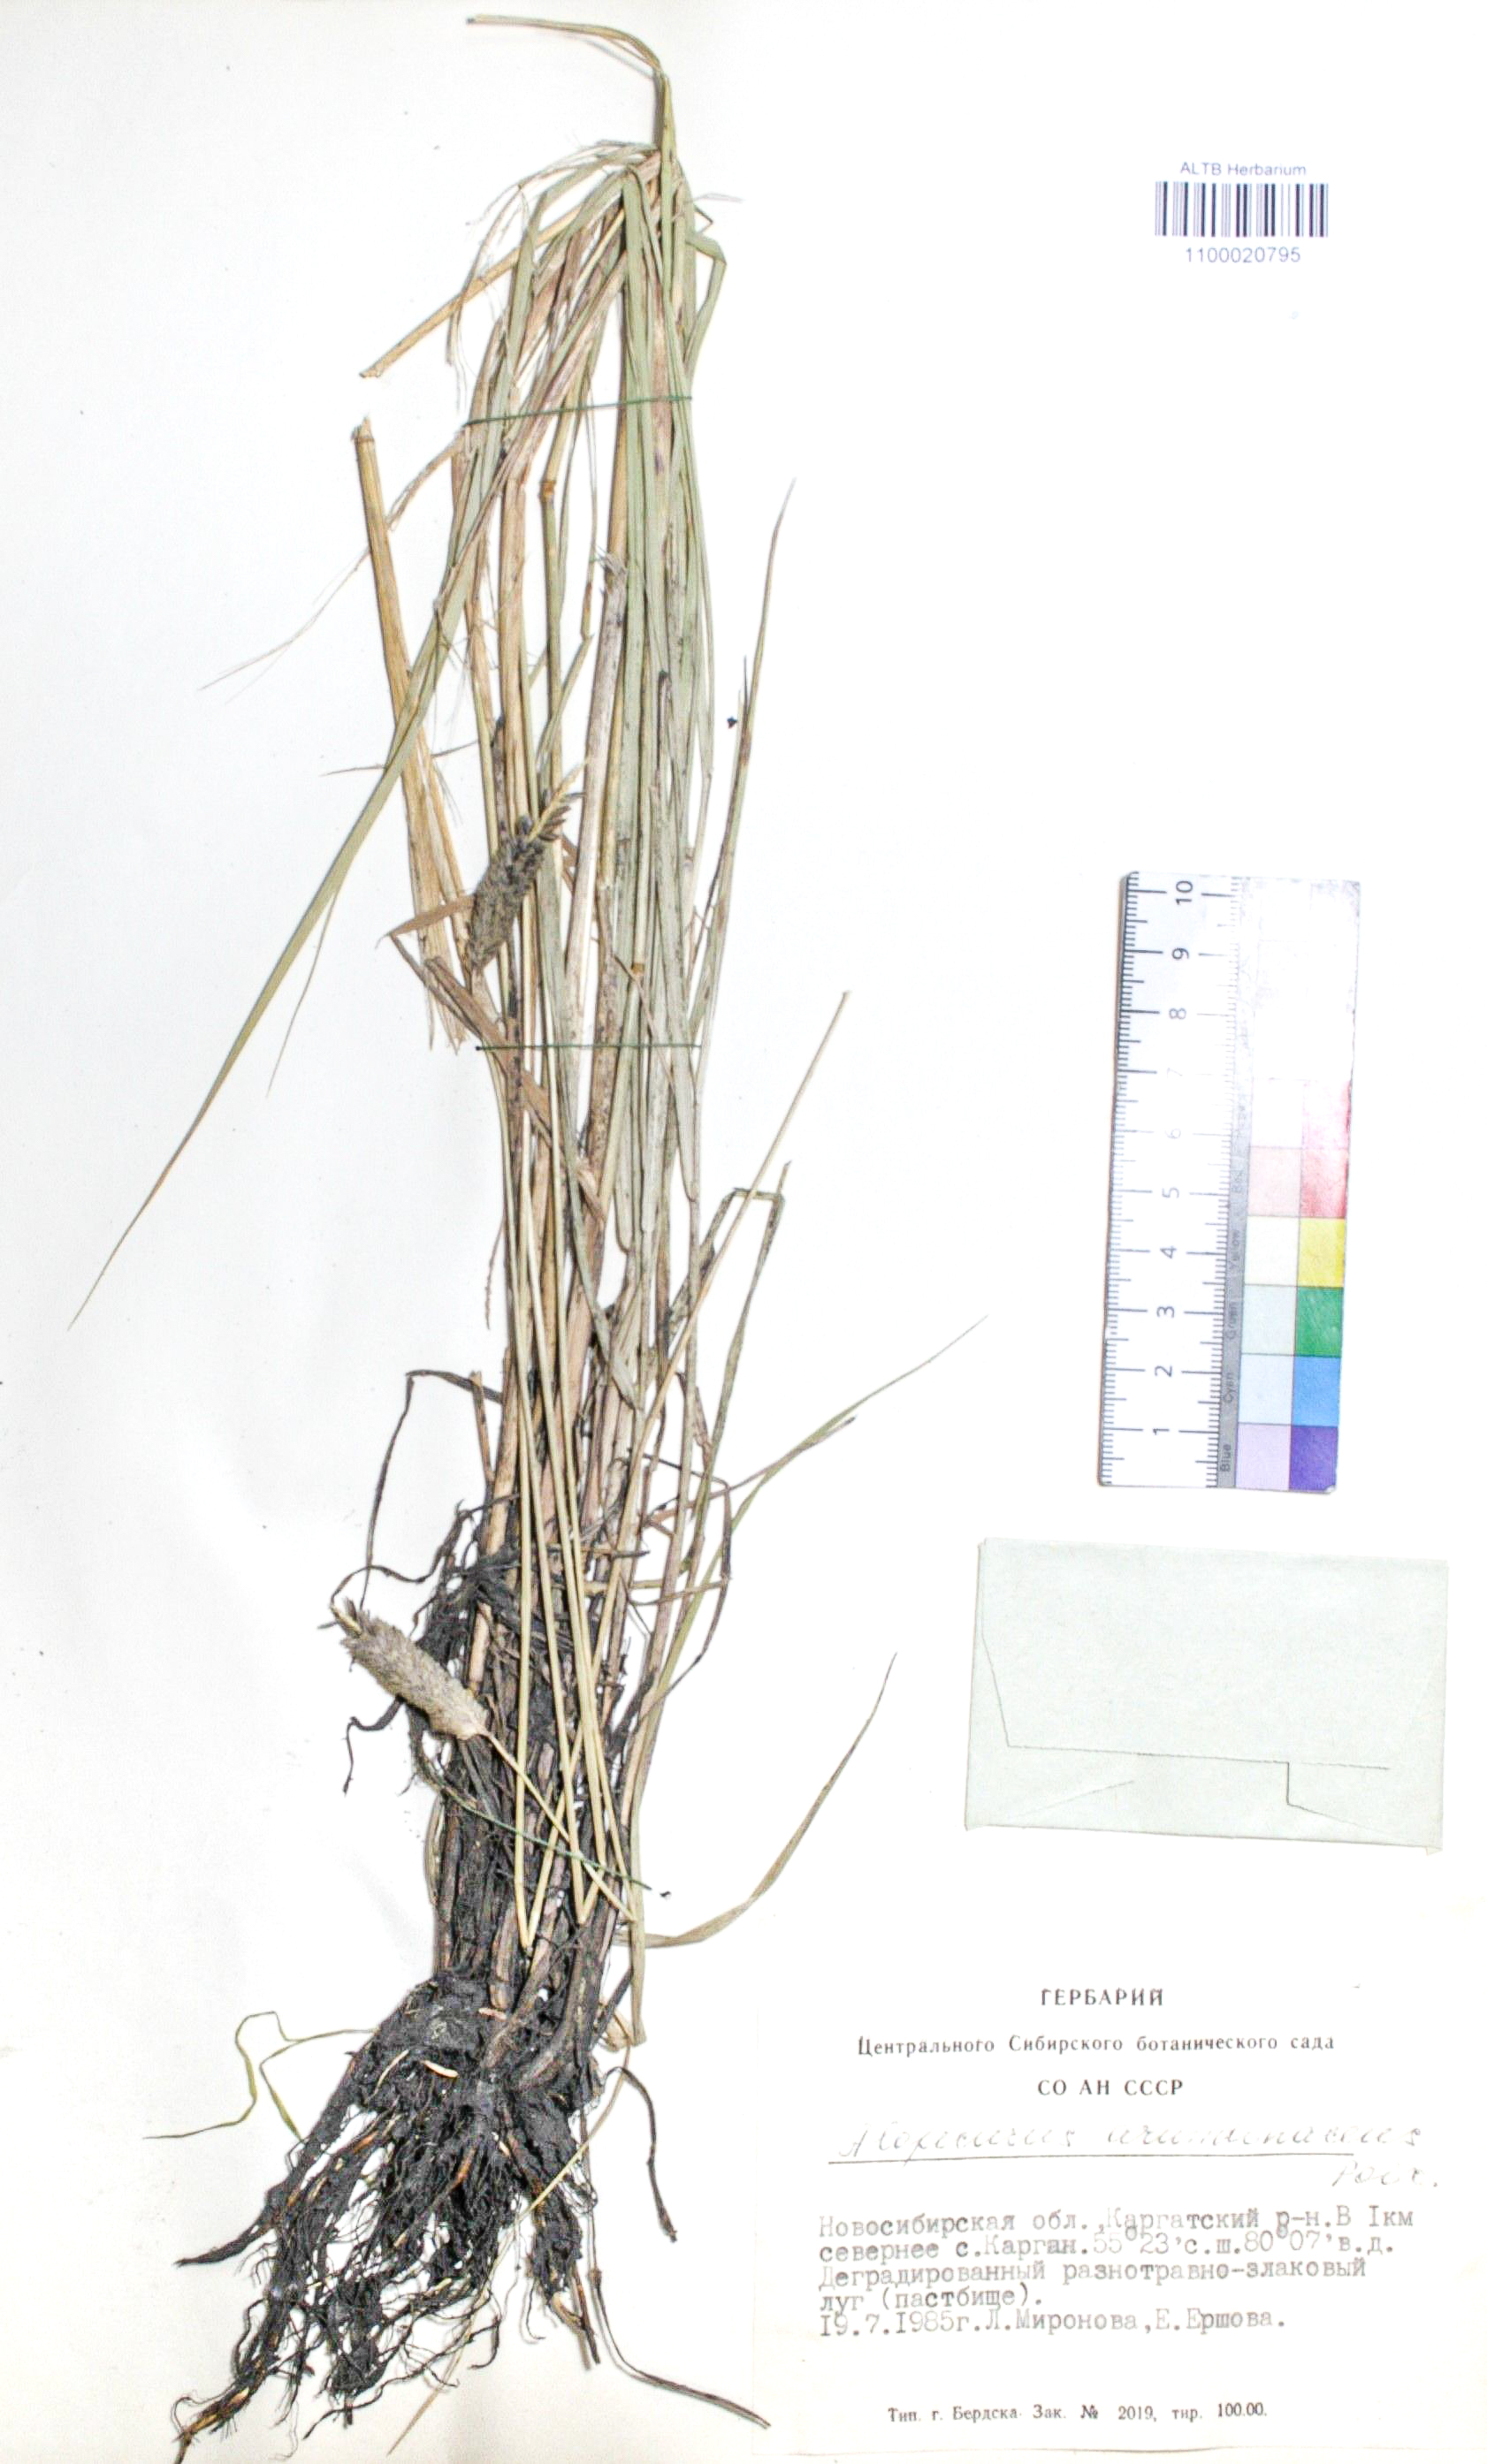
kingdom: Plantae
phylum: Tracheophyta
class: Liliopsida
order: Poales
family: Poaceae
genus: Alopecurus
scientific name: Alopecurus arundinaceus
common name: Creeping meadow foxtail
